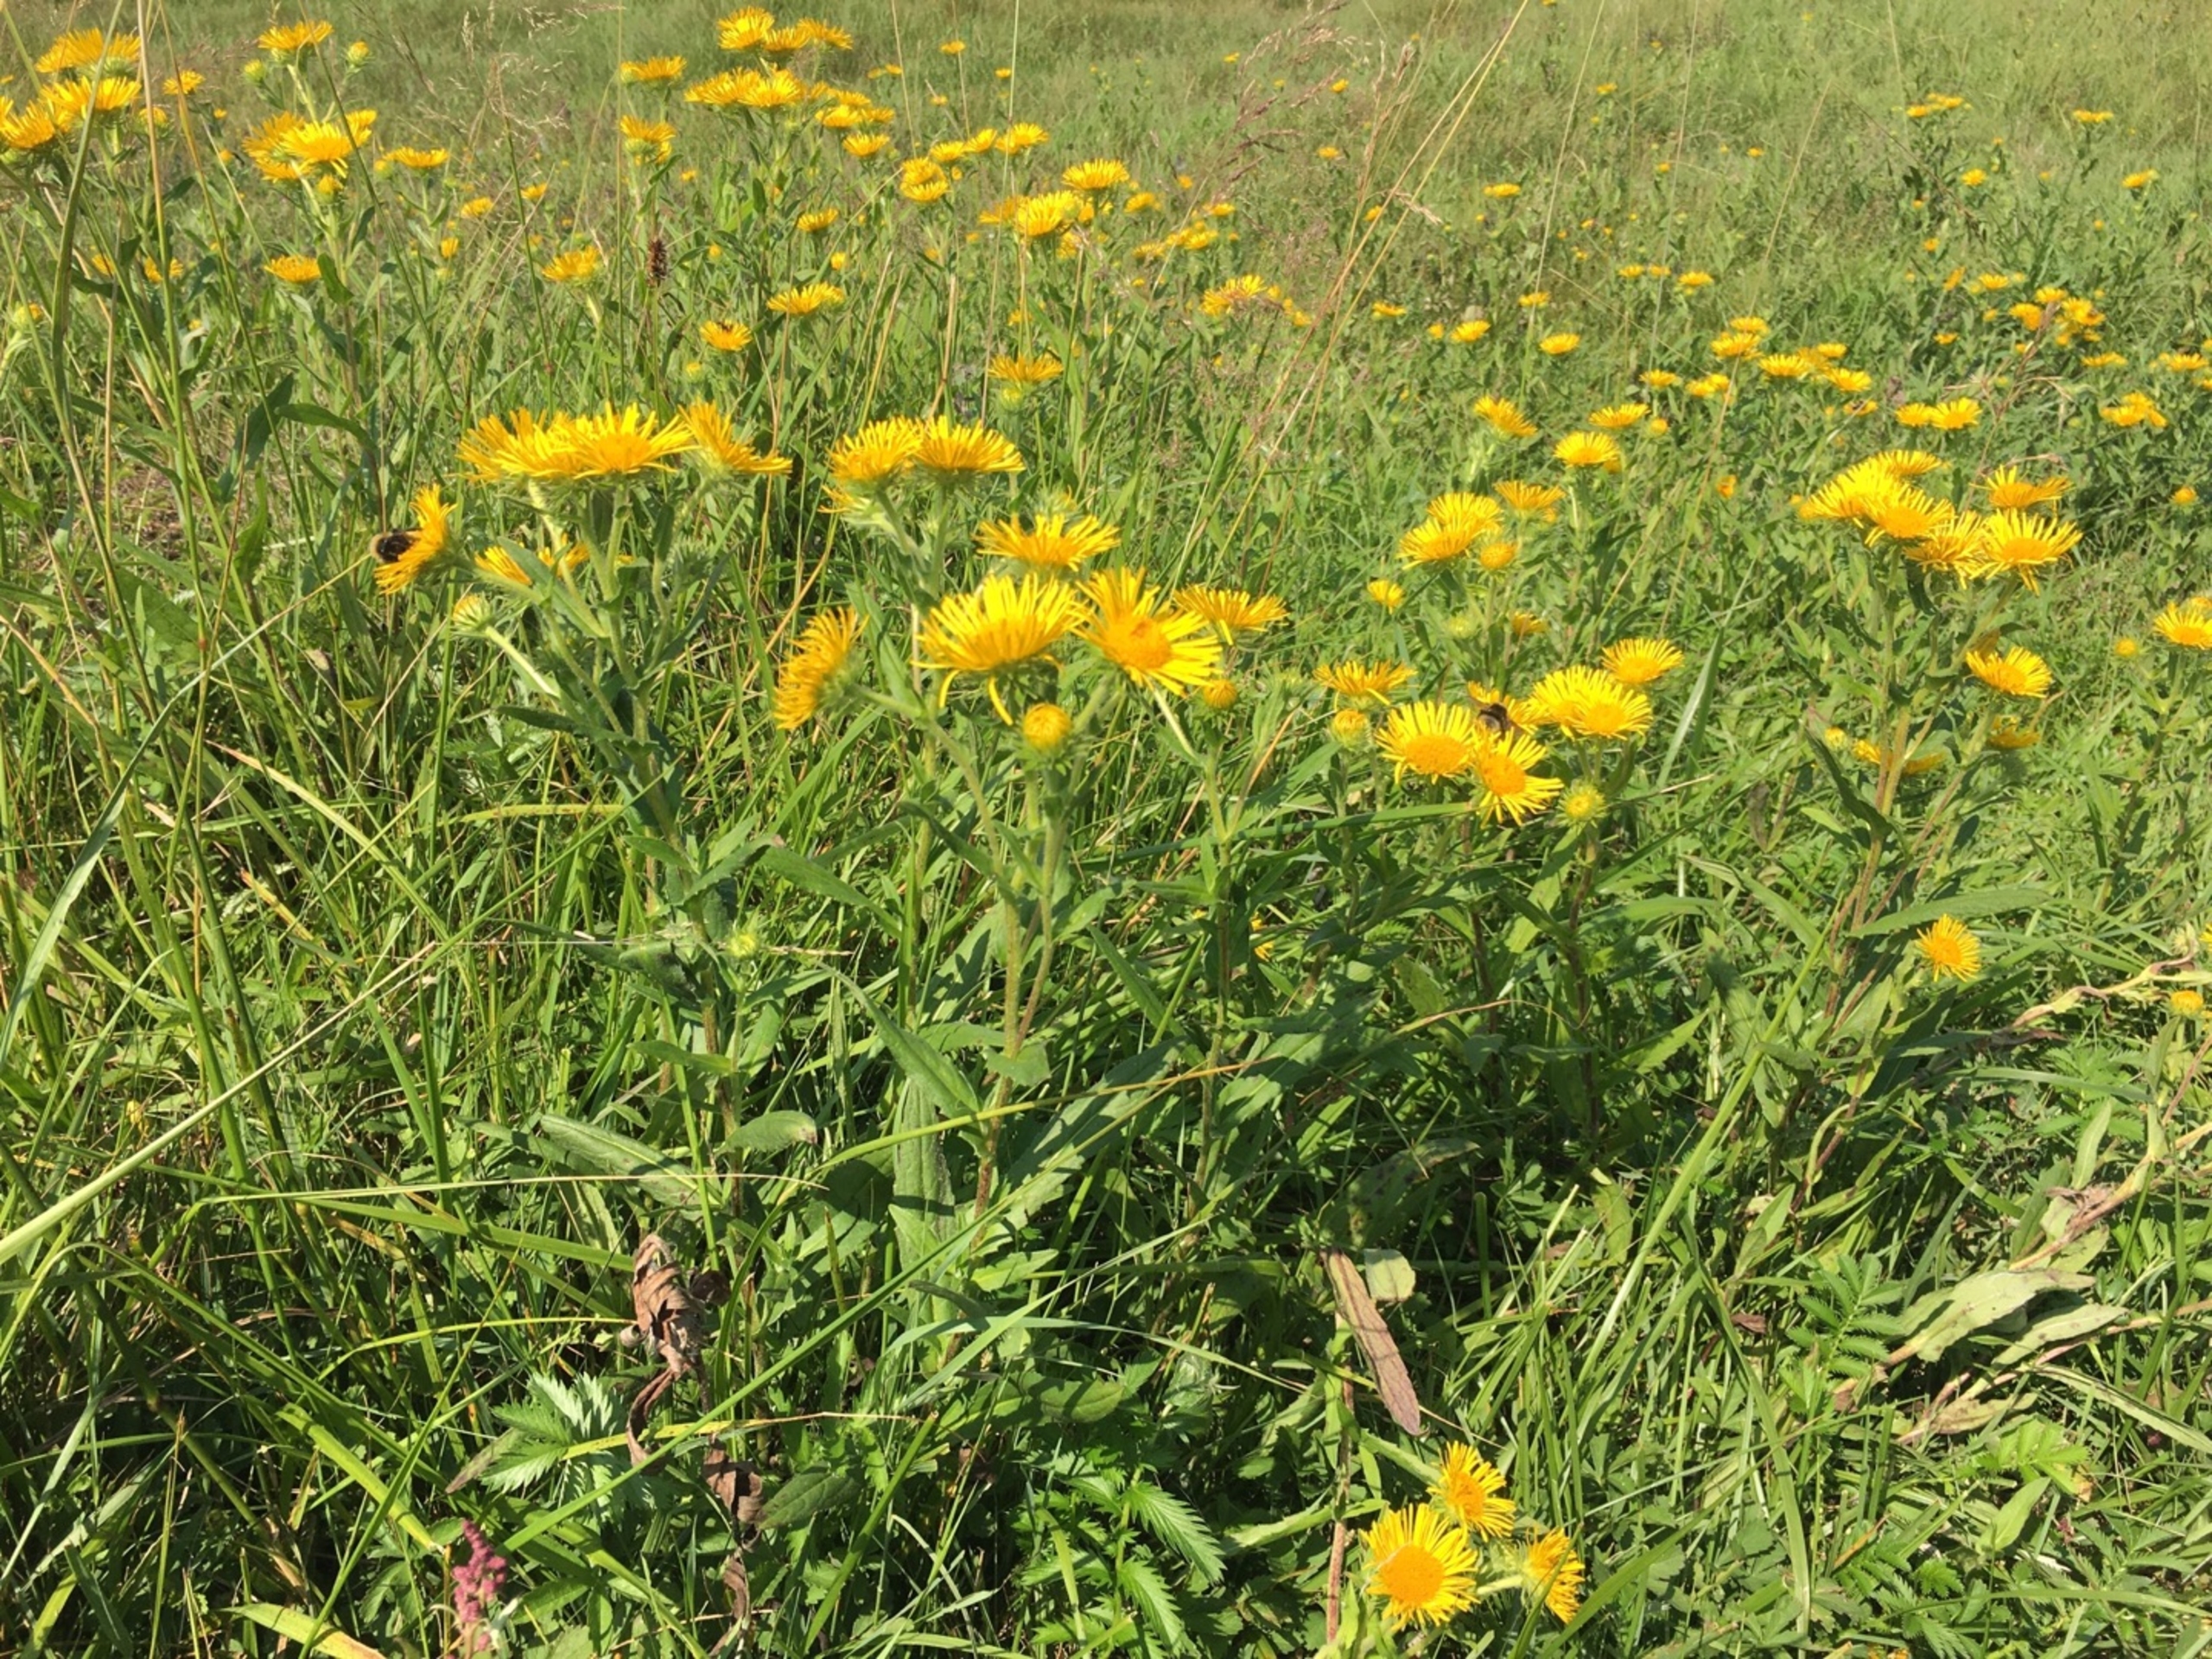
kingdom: Plantae
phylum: Tracheophyta
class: Magnoliopsida
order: Asterales
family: Asteraceae
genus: Pentanema
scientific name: Pentanema britannicum
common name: Soløje-alant
